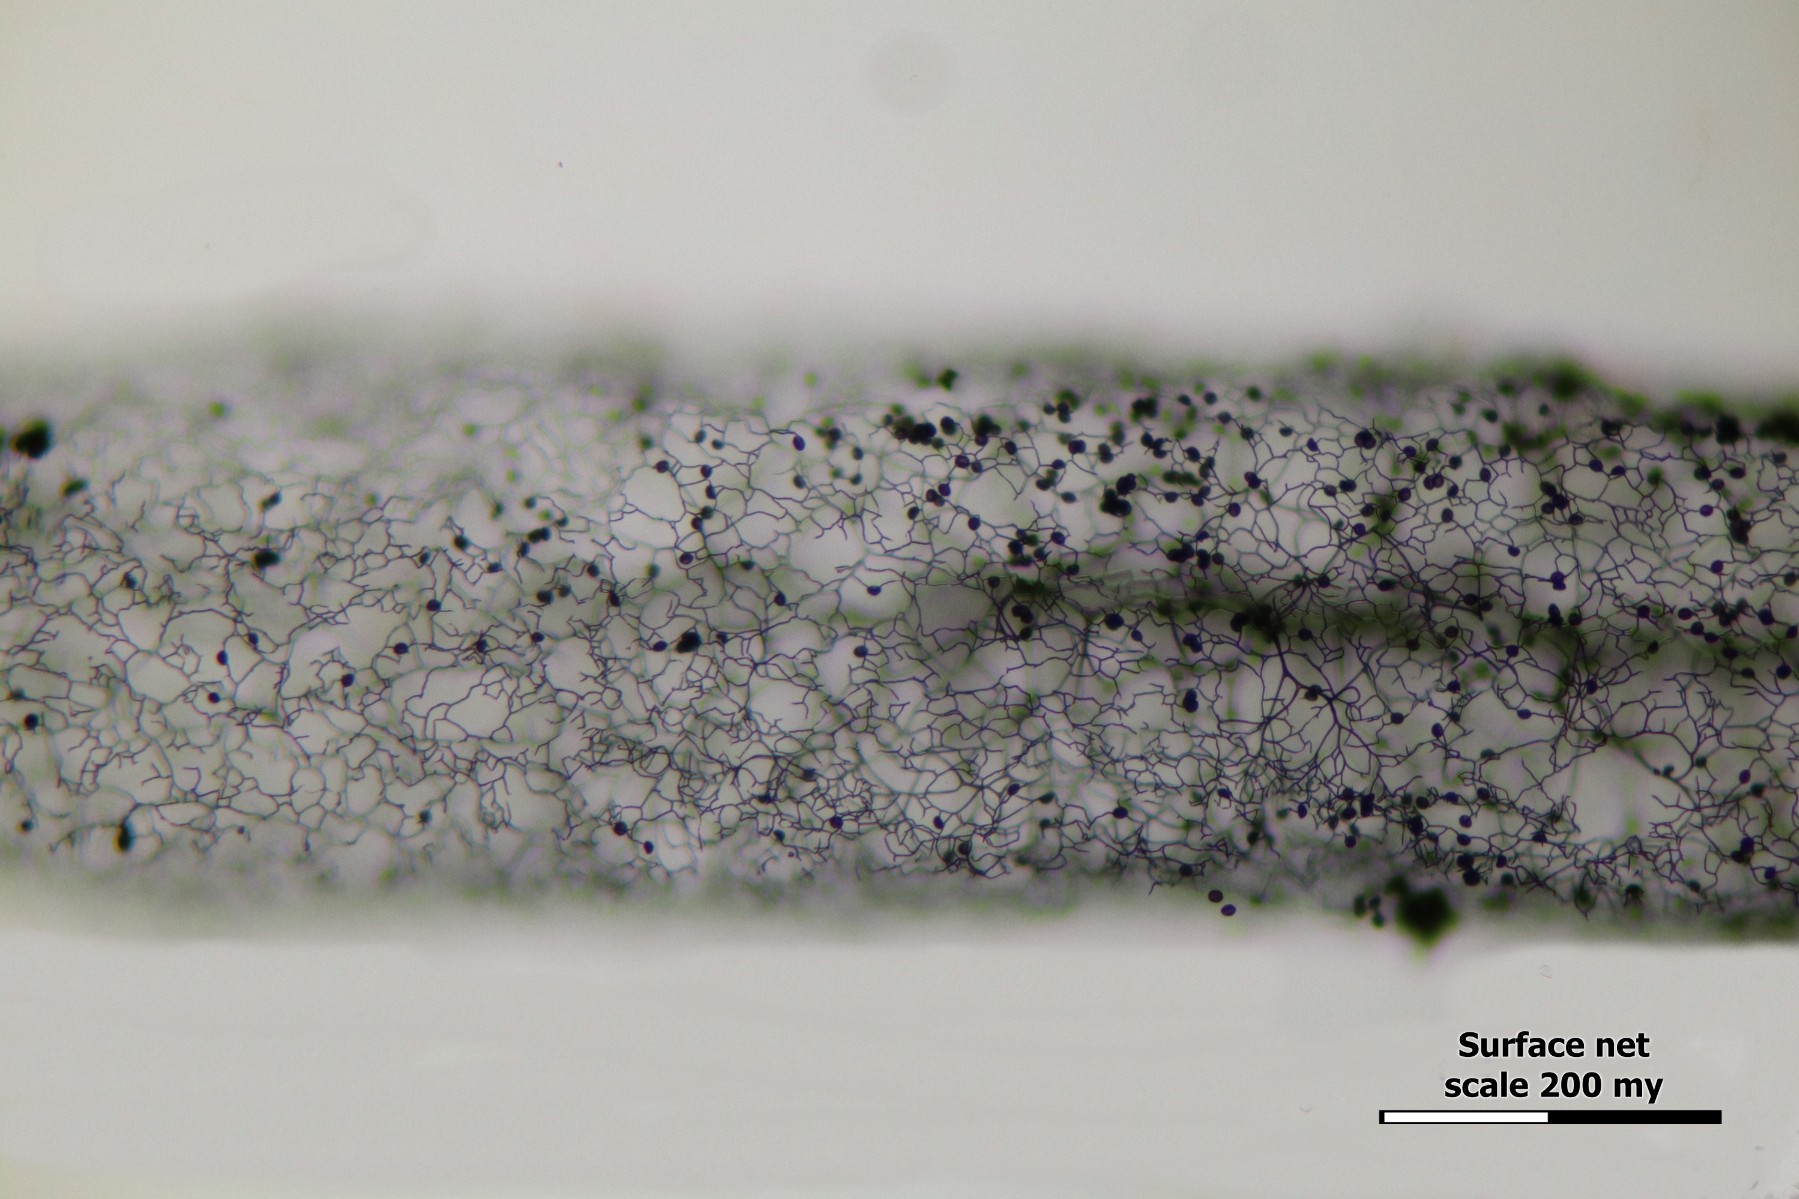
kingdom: Protozoa
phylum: Mycetozoa
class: Myxomycetes
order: Stemonitidales
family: Stemonitidaceae
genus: Stemonitis
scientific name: Stemonitis fusca
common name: sodbrun støvkølle
